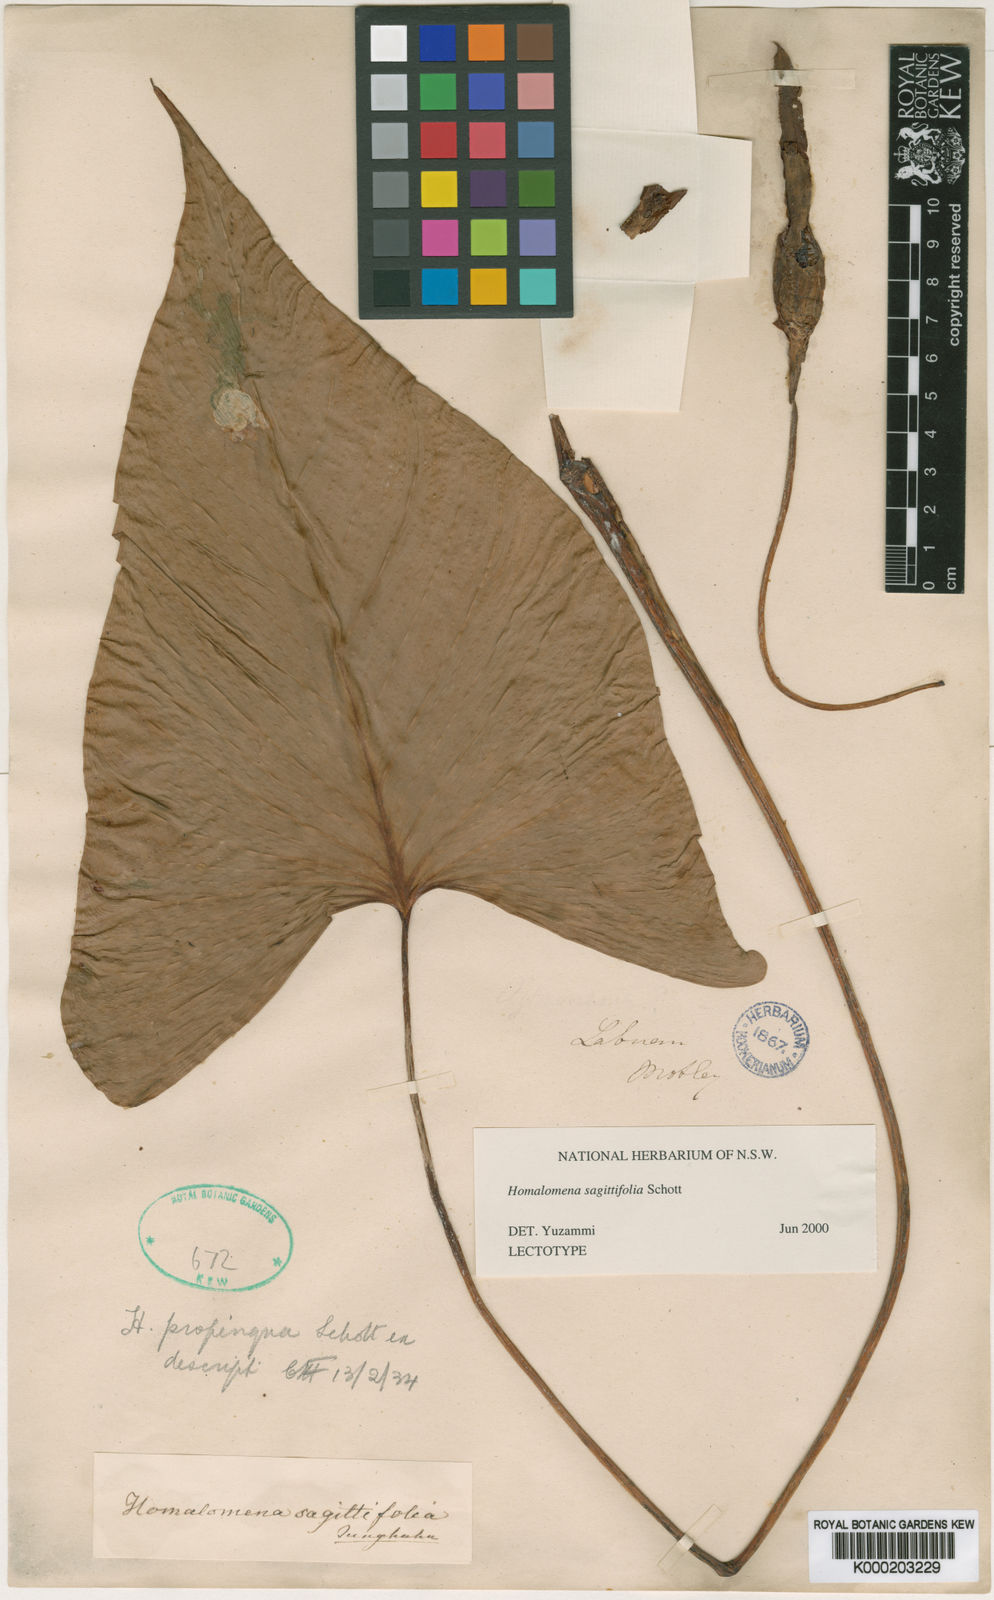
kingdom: Plantae
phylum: Tracheophyta
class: Liliopsida
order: Alismatales
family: Araceae
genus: Homalomena
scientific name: Homalomena rostrata
